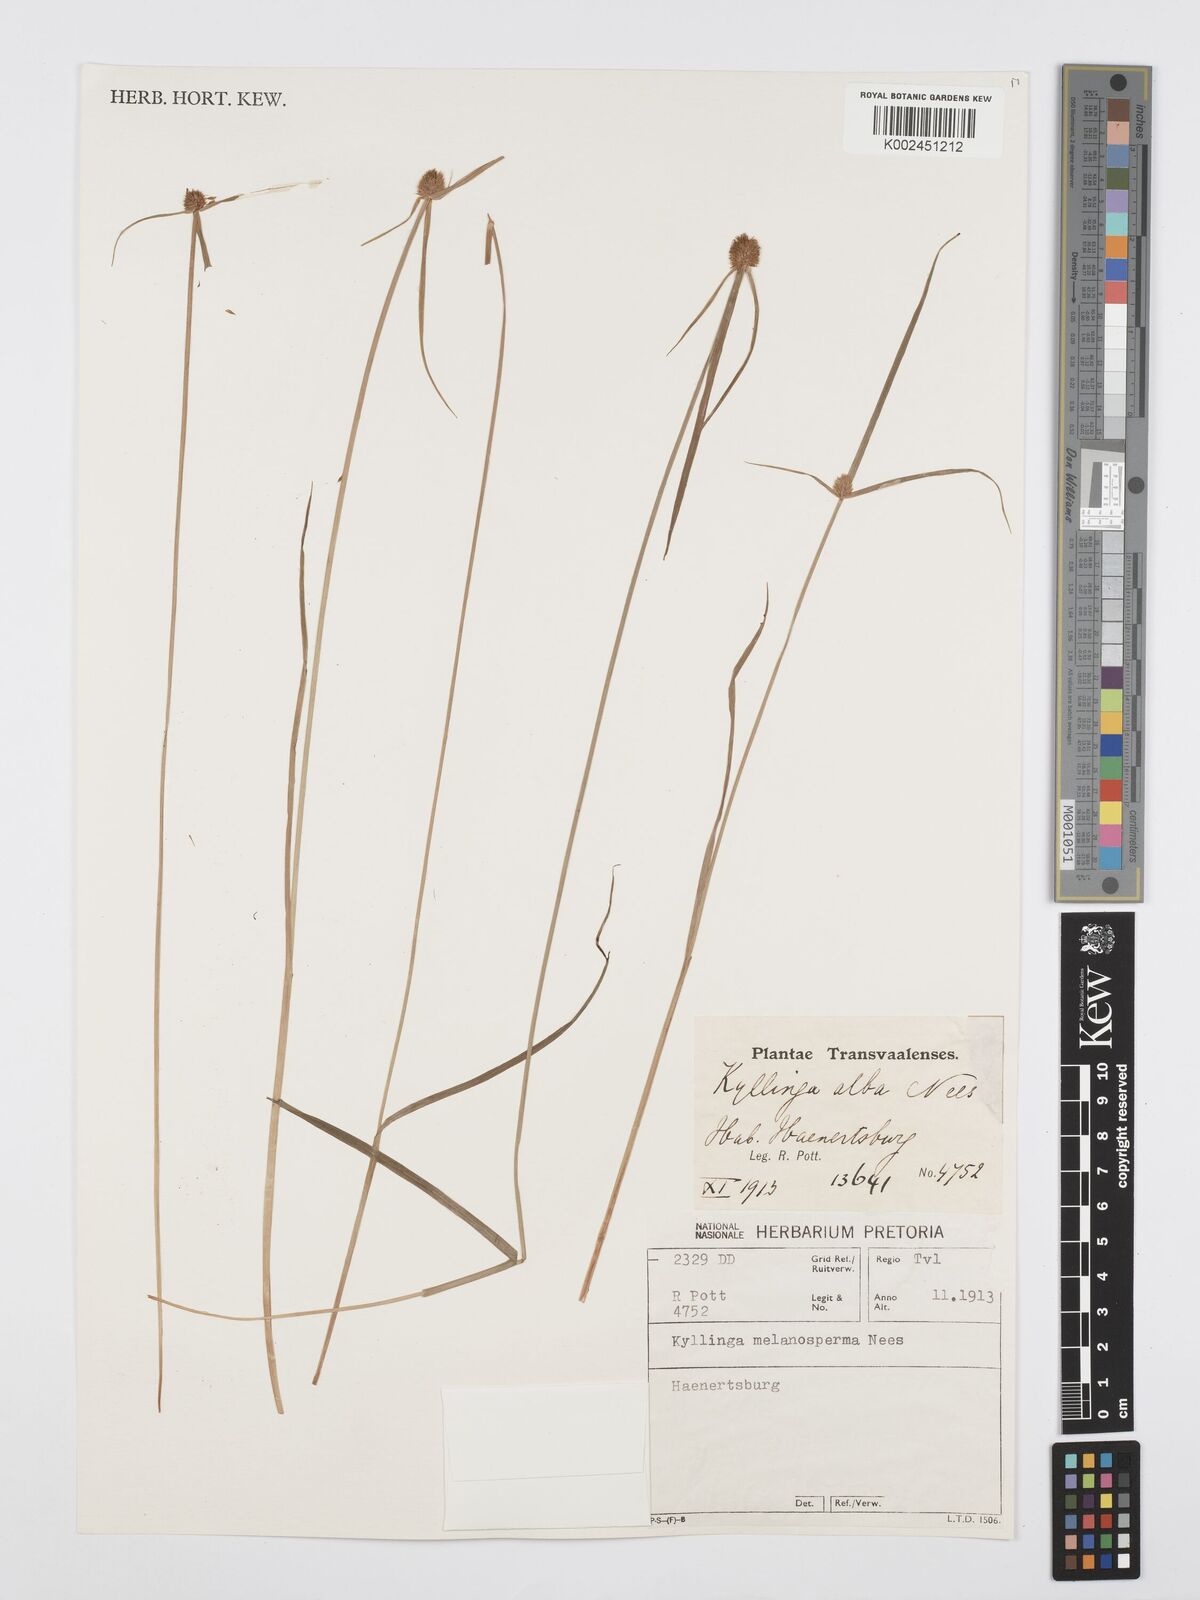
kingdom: Plantae
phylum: Tracheophyta
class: Liliopsida
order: Poales
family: Cyperaceae
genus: Cyperus
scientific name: Cyperus melanospermus
